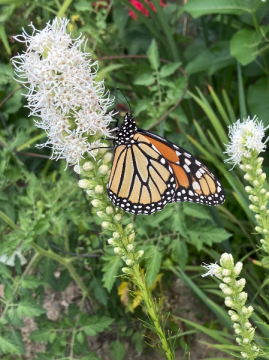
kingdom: Animalia
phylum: Arthropoda
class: Insecta
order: Lepidoptera
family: Nymphalidae
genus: Danaus
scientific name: Danaus plexippus
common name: Monarch
